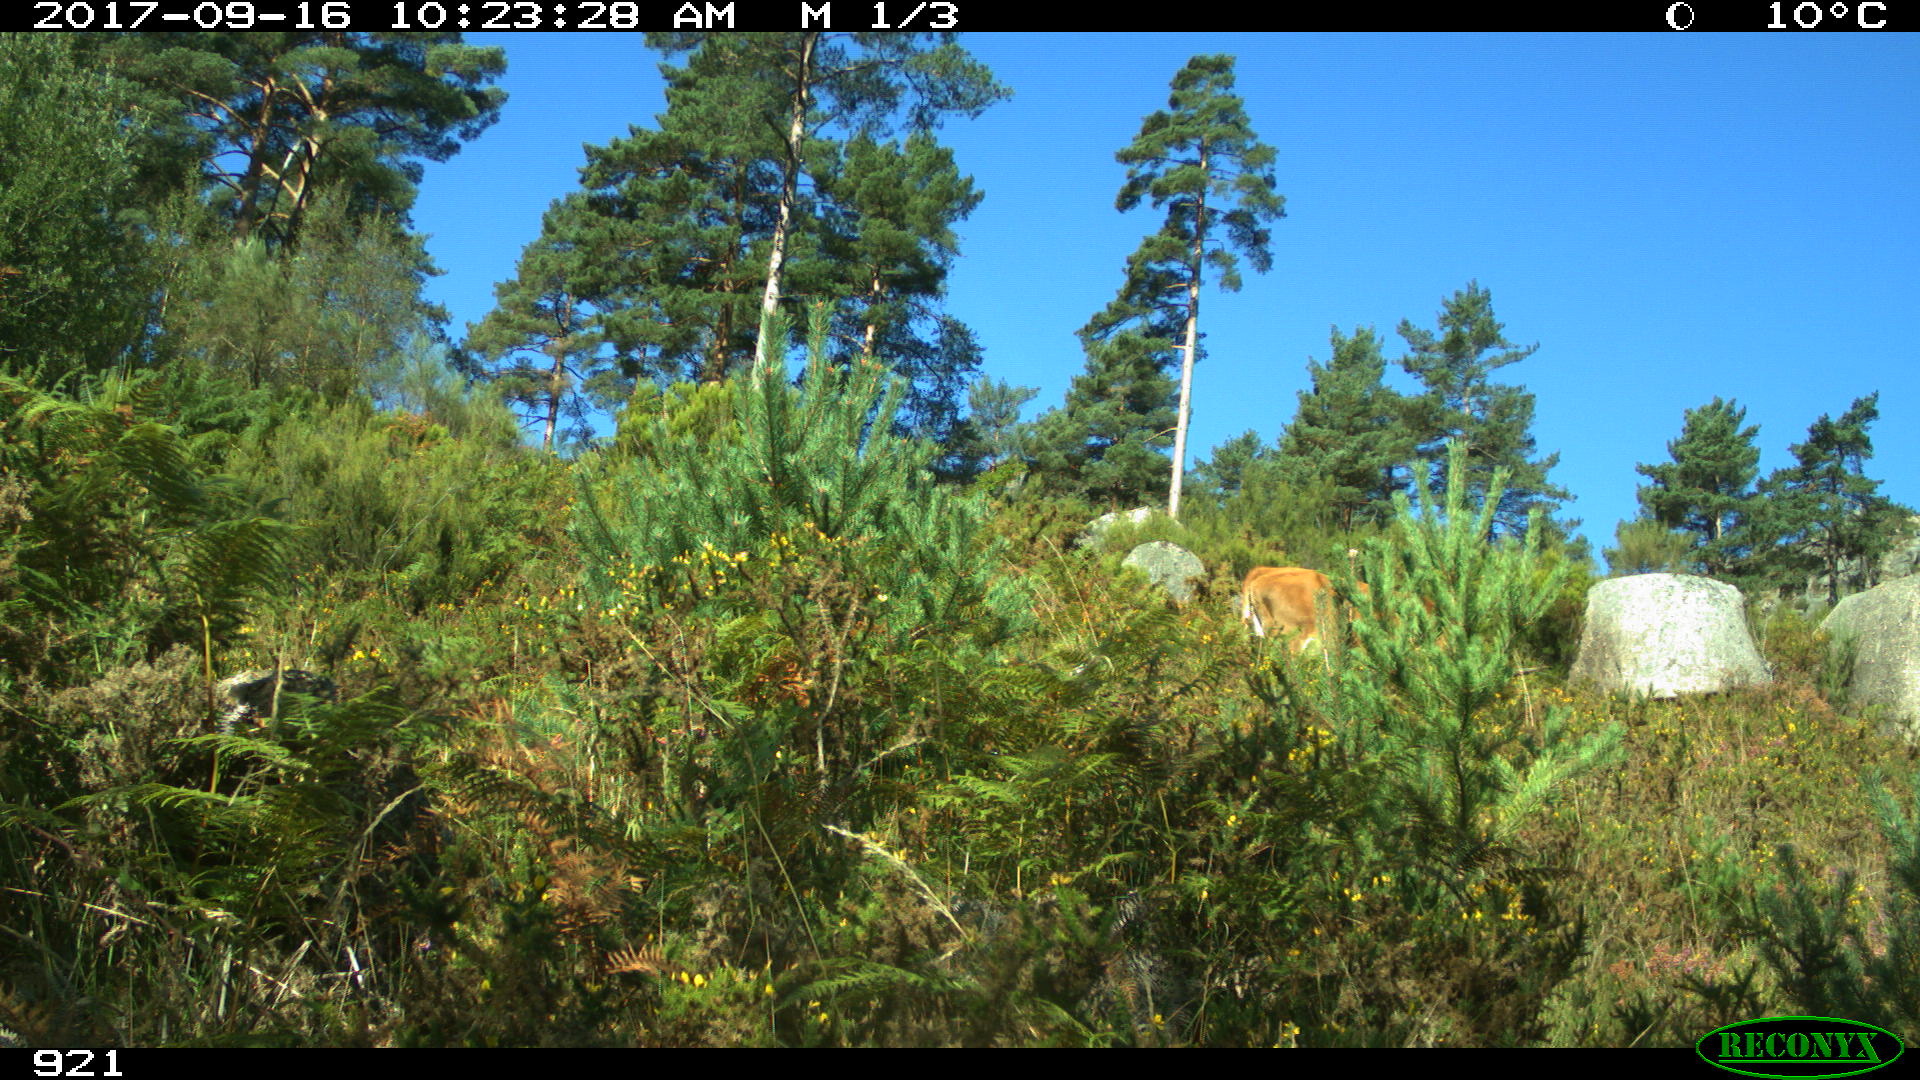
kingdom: Animalia
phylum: Chordata
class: Mammalia
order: Artiodactyla
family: Bovidae
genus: Bos
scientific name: Bos taurus
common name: Domesticated cattle
